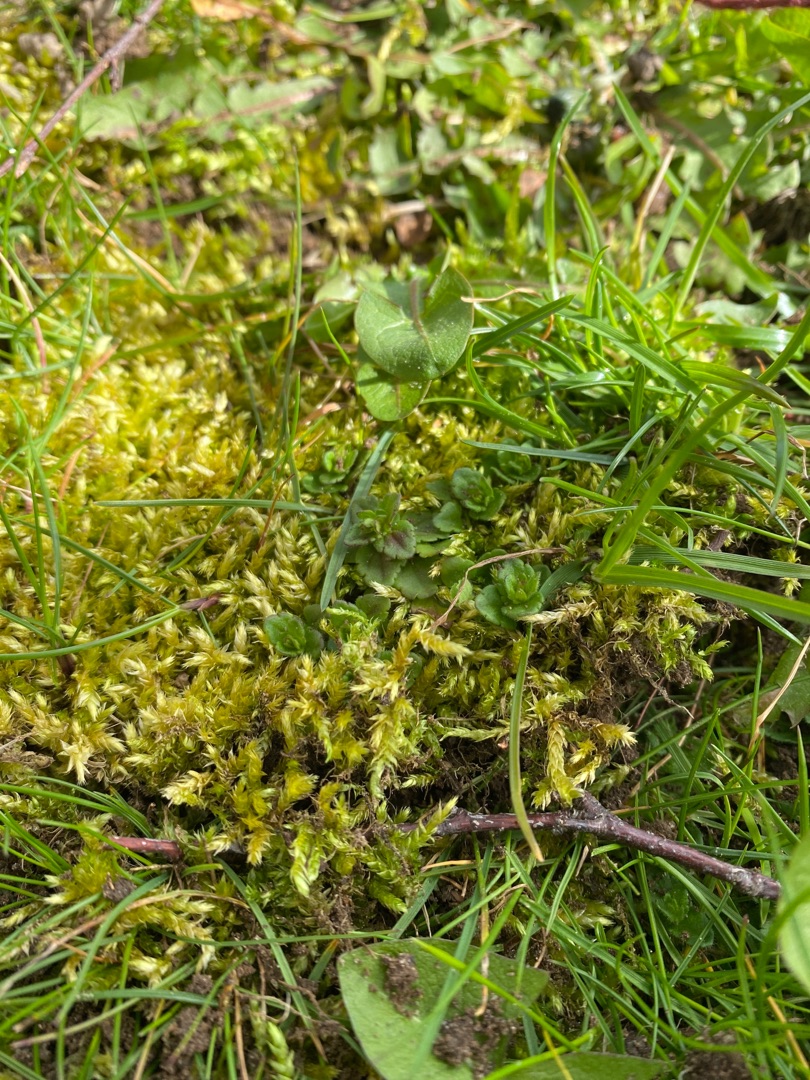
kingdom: Plantae
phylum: Bryophyta
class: Bryopsida
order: Hypnales
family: Brachytheciaceae
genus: Brachythecium
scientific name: Brachythecium rutabulum
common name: Almindelig kortkapsel
